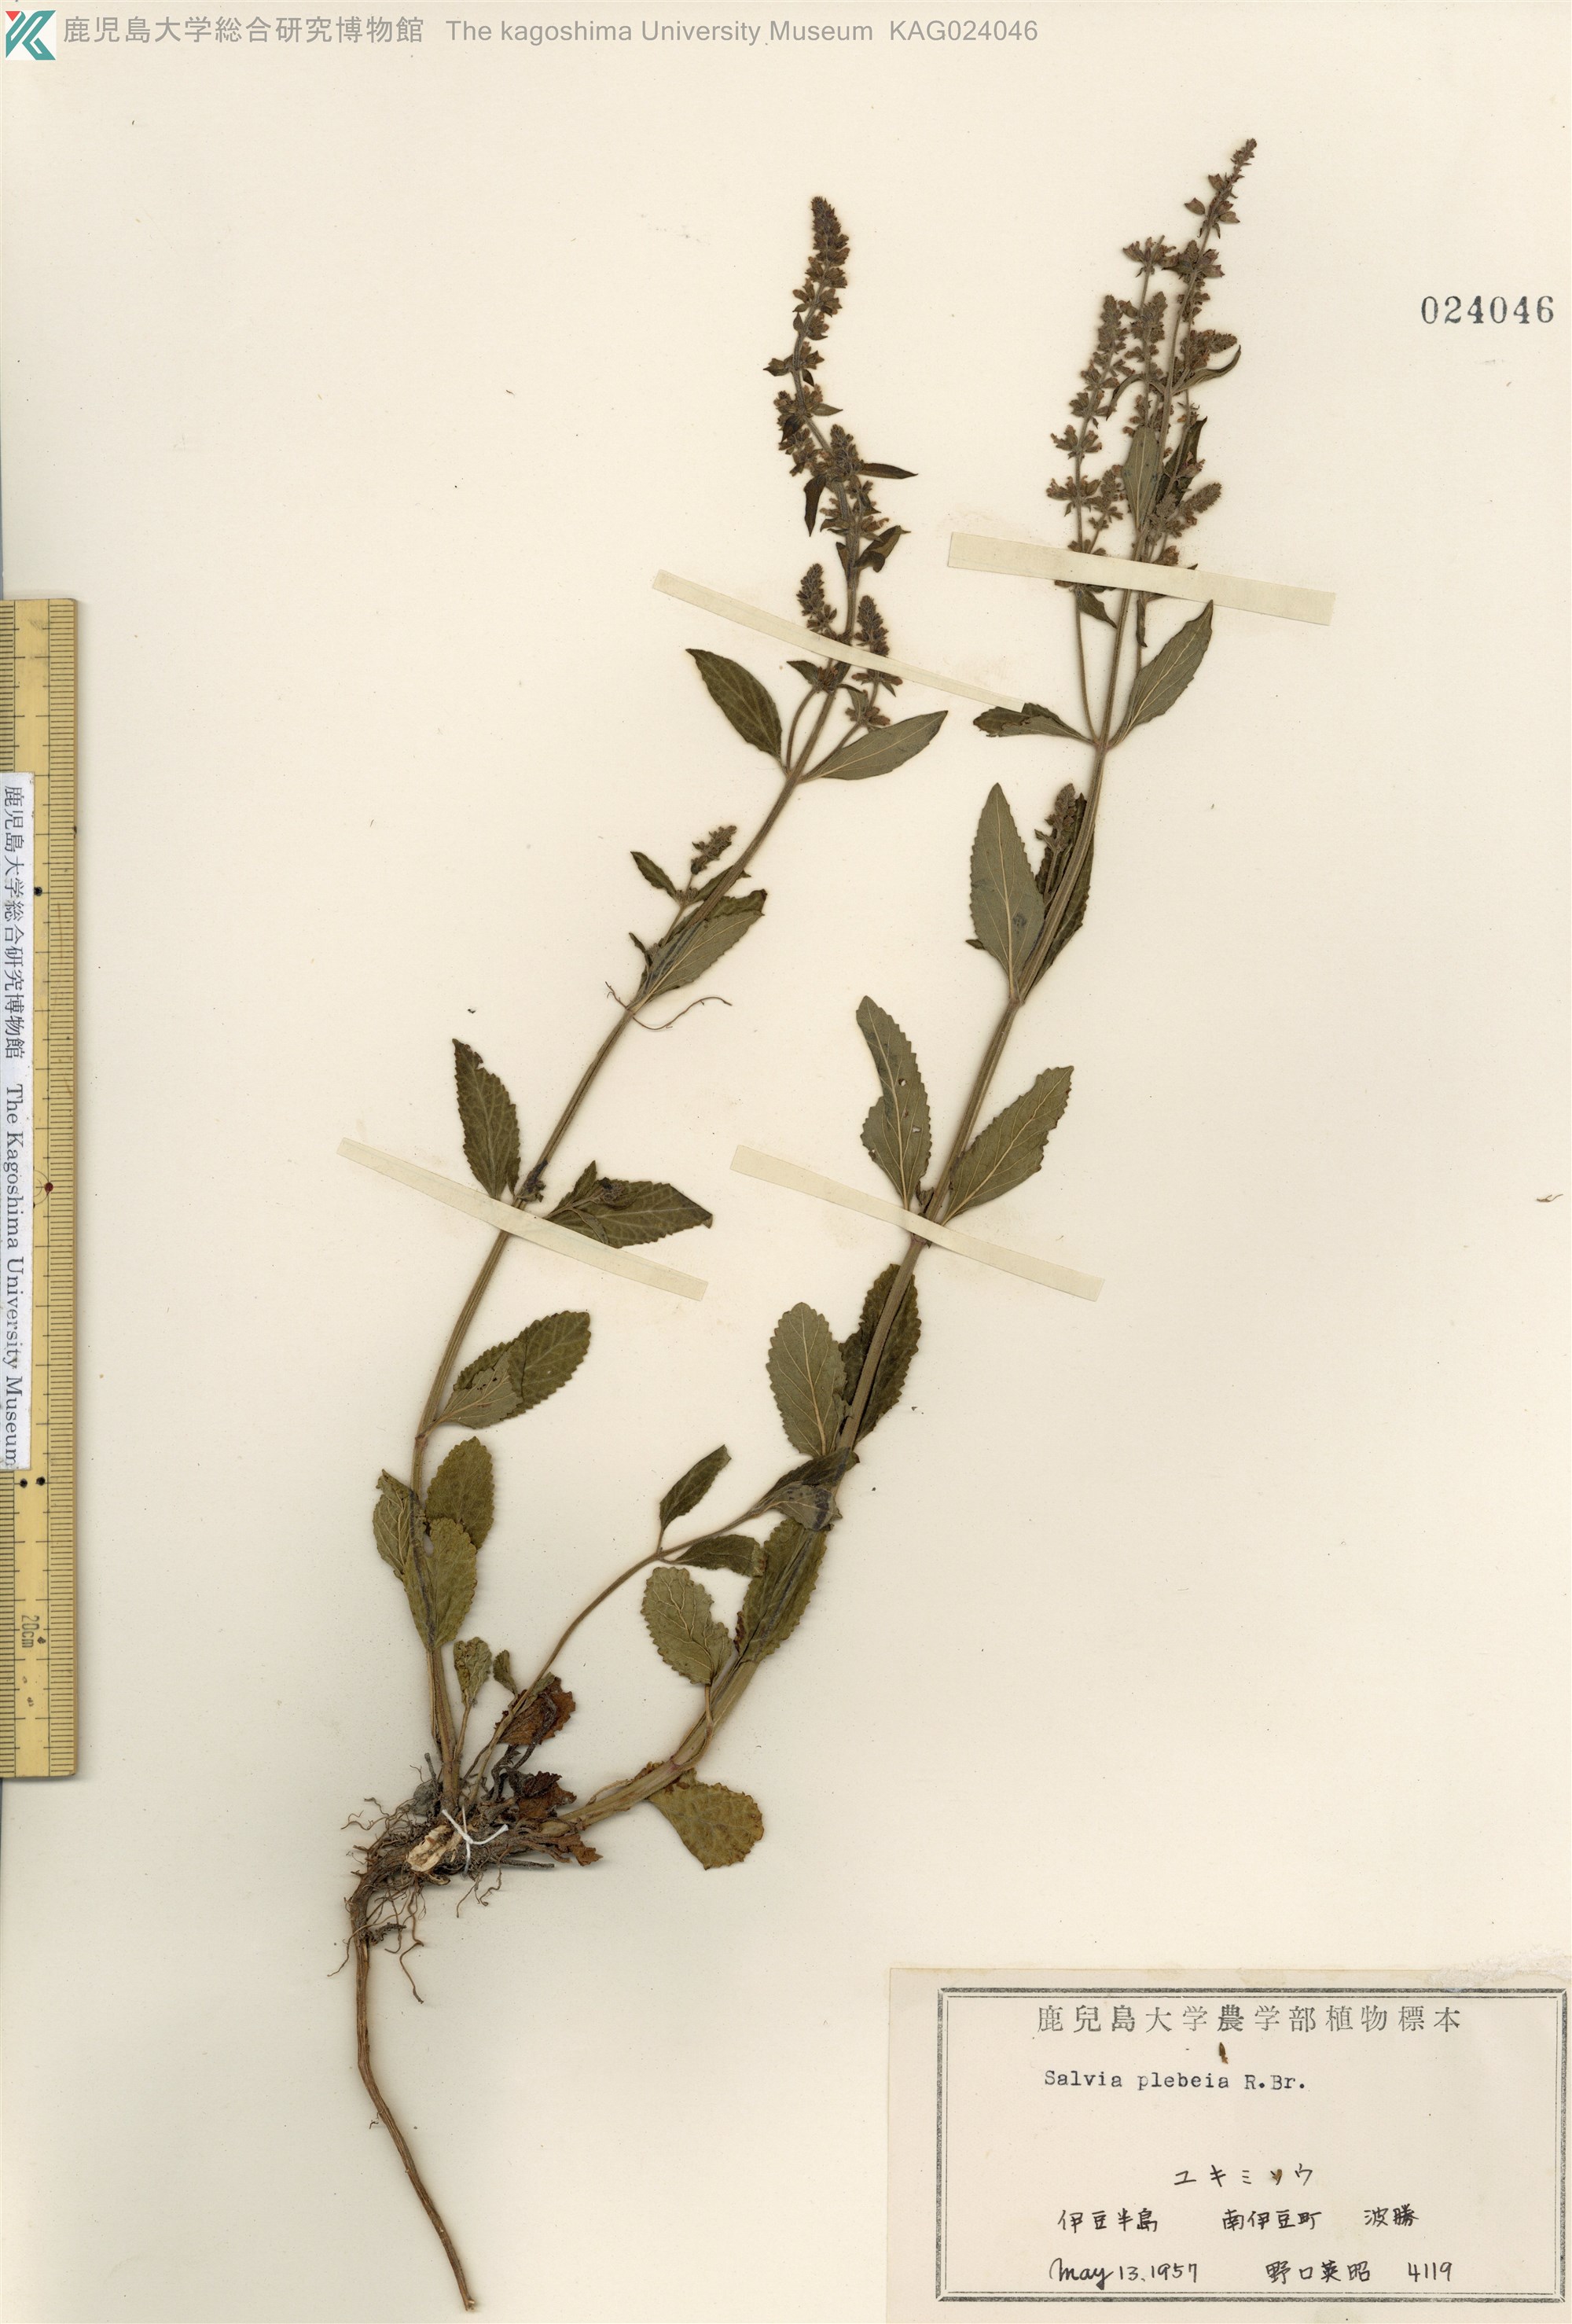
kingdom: Plantae
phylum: Tracheophyta
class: Magnoliopsida
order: Lamiales
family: Lamiaceae
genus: Salvia
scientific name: Salvia plebeia
